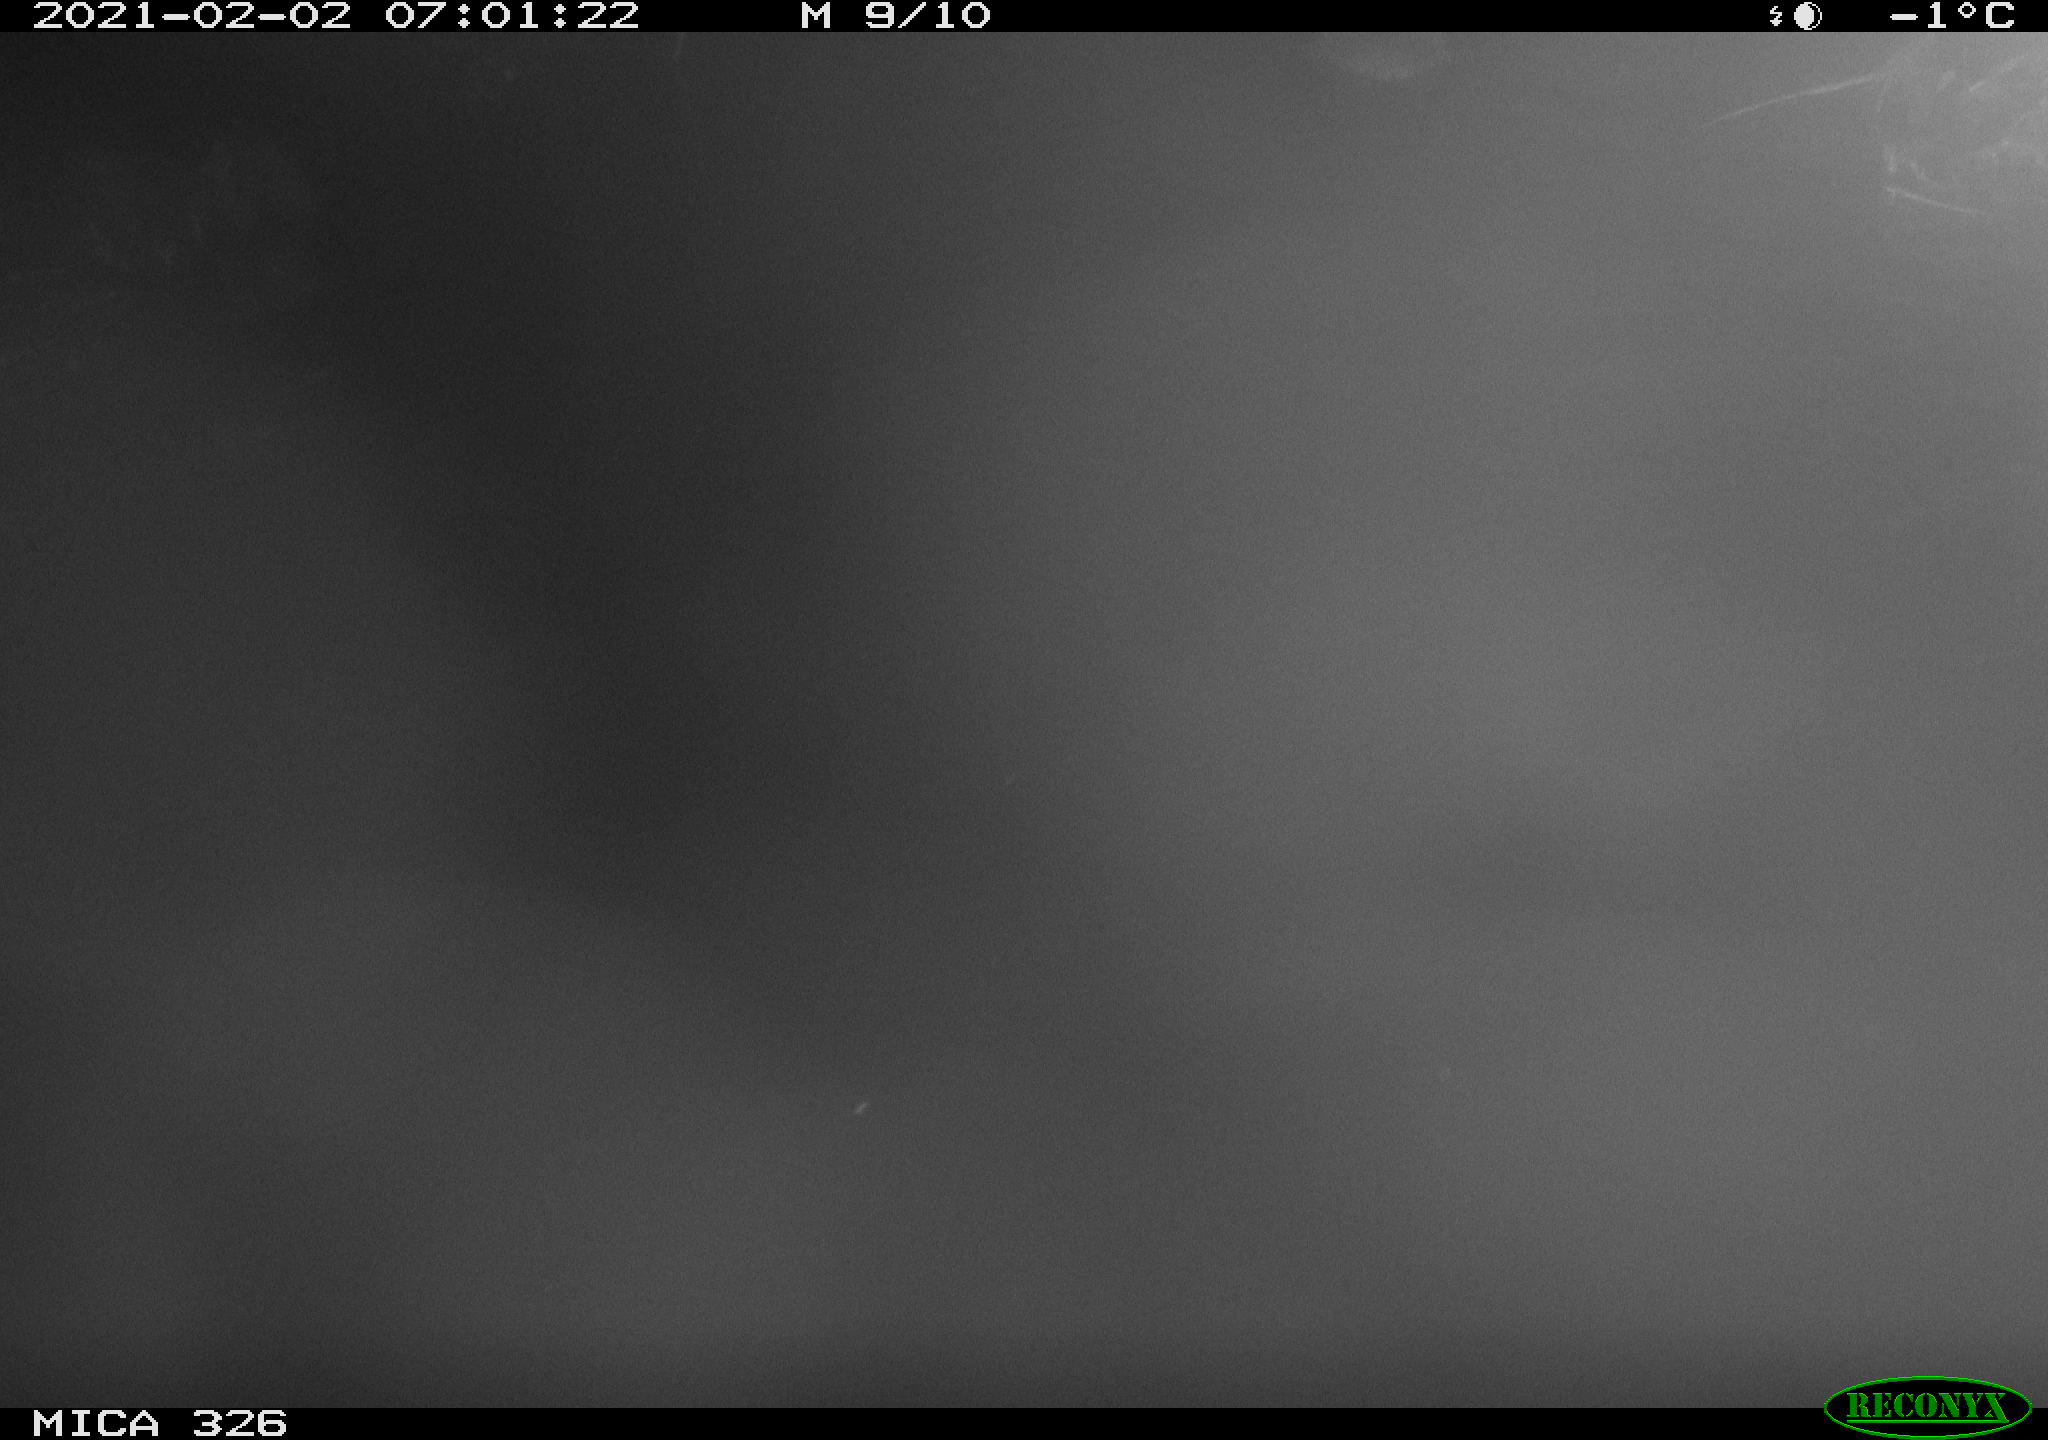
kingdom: Animalia
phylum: Chordata
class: Mammalia
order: Rodentia
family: Myocastoridae
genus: Myocastor
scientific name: Myocastor coypus
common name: Coypu
